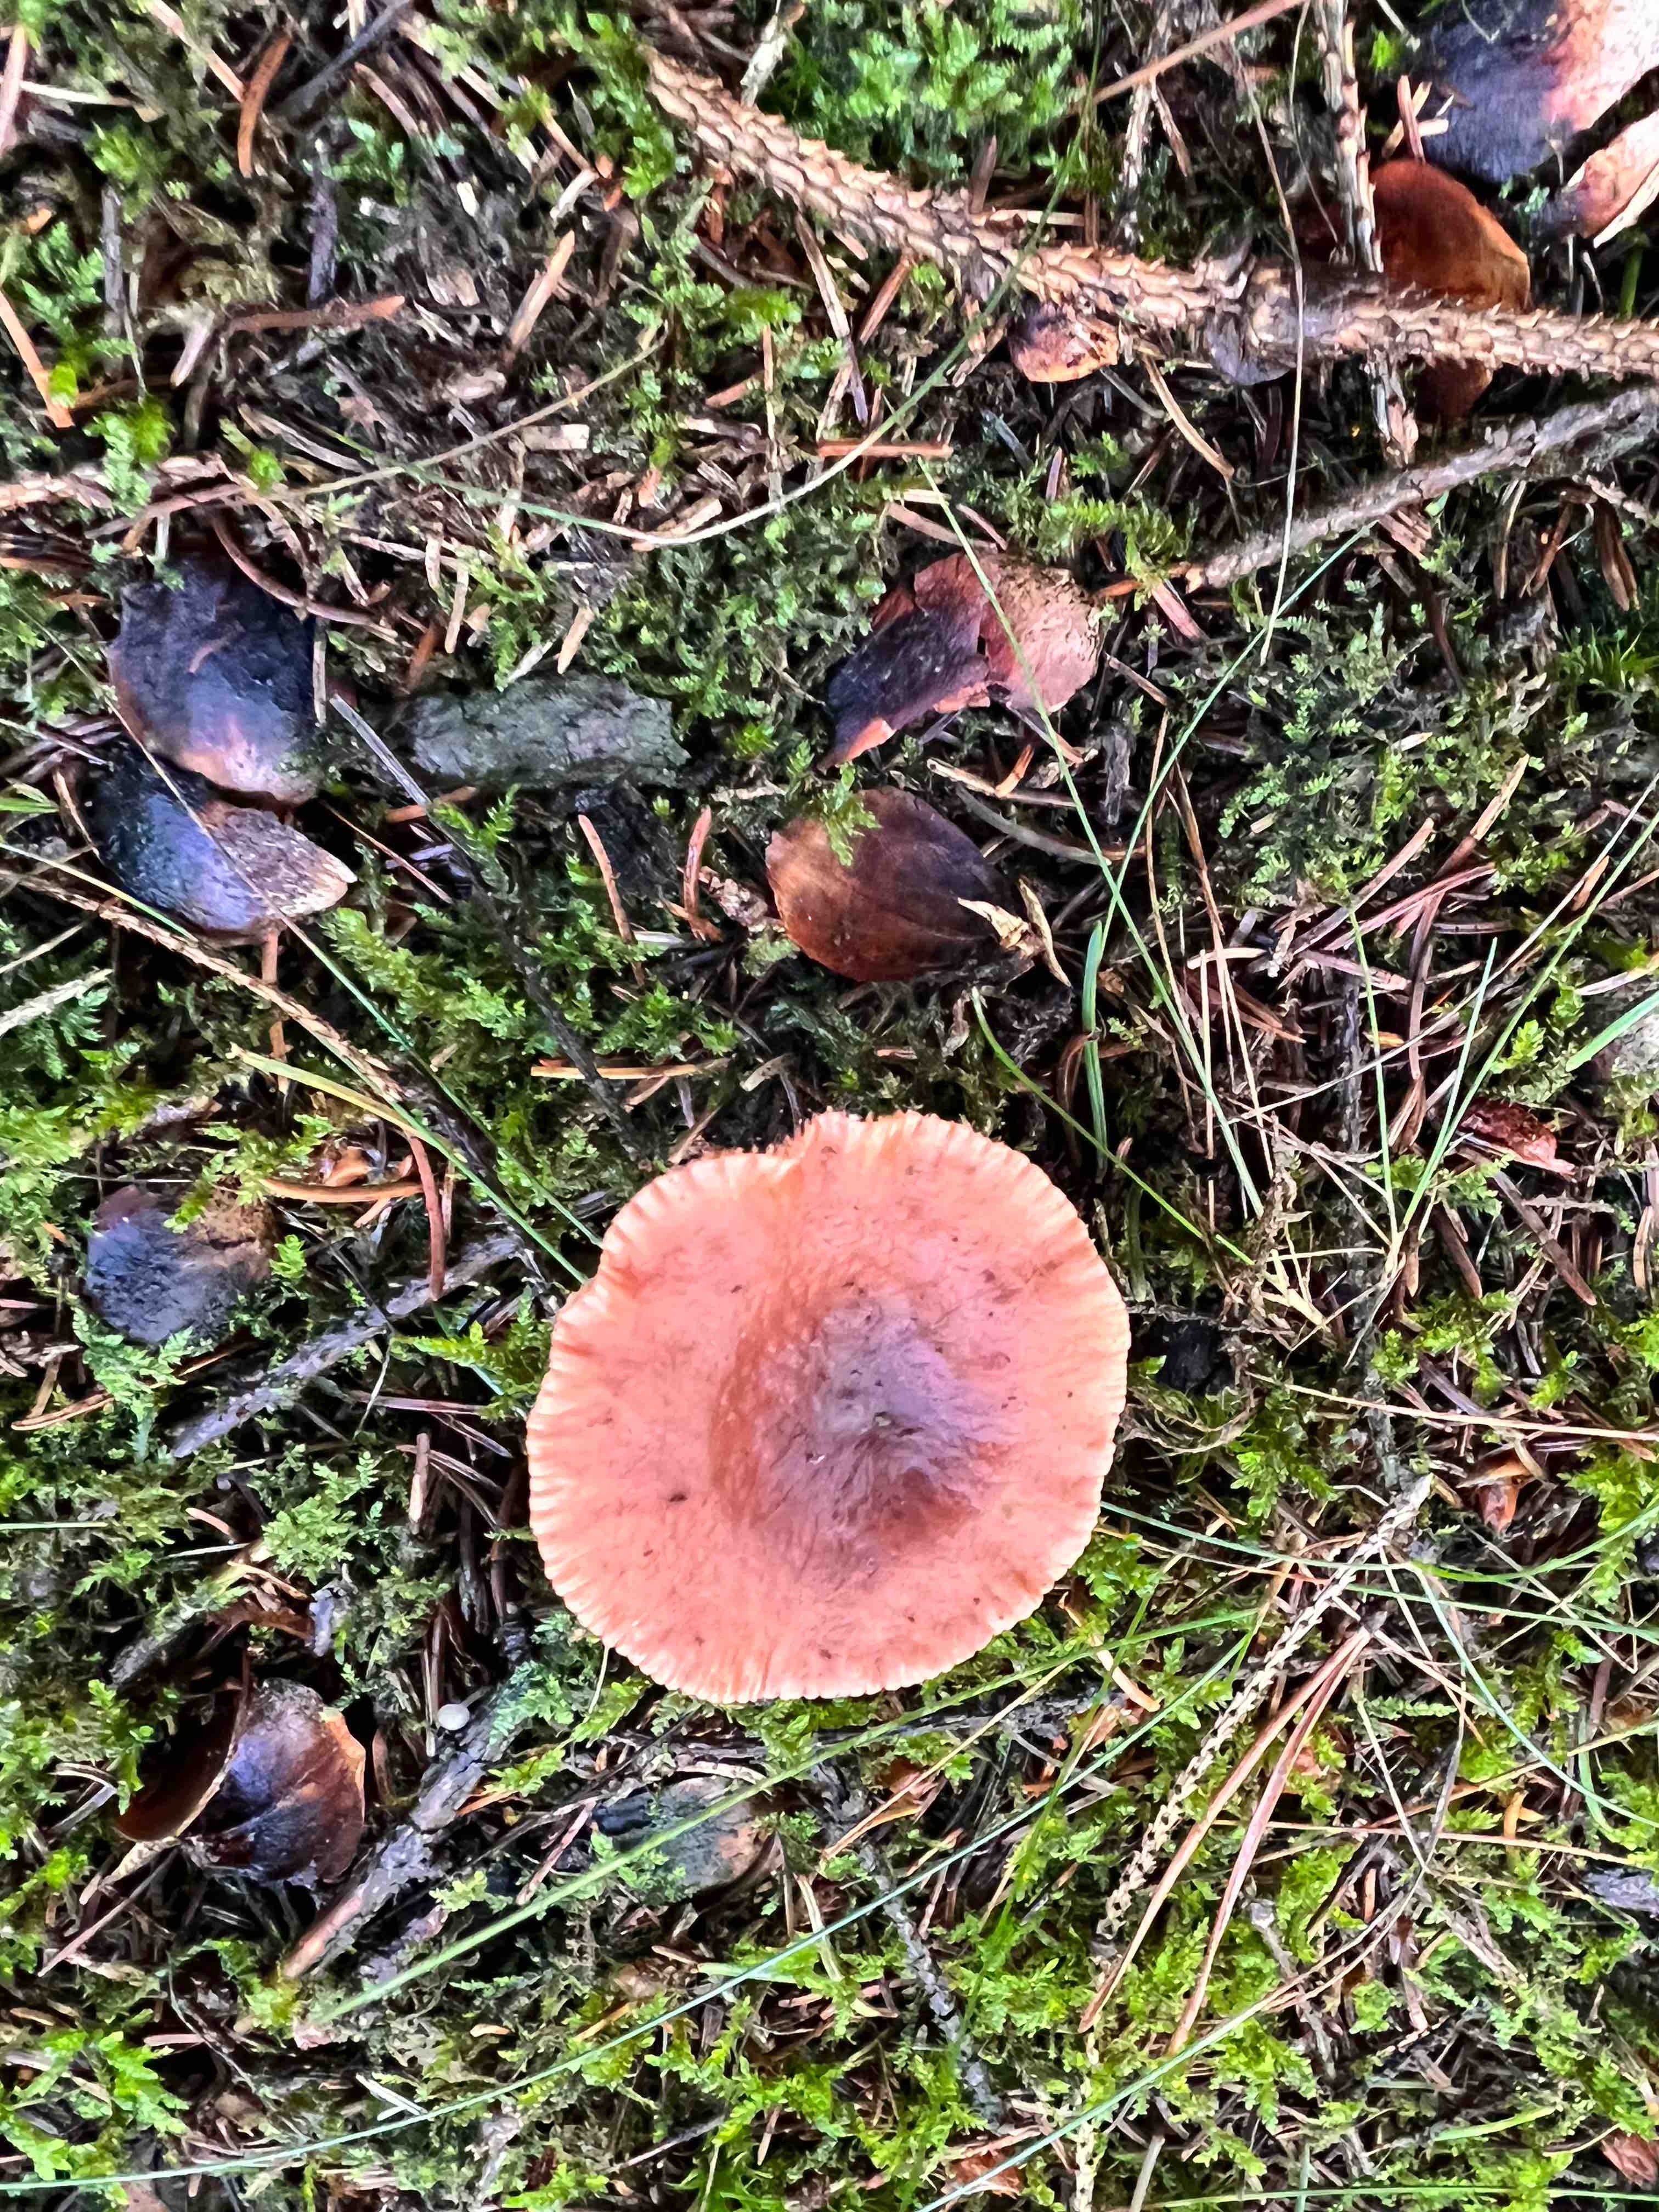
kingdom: Fungi
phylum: Basidiomycota
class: Agaricomycetes
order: Russulales
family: Russulaceae
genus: Lactarius
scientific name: Lactarius
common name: mælkehat
